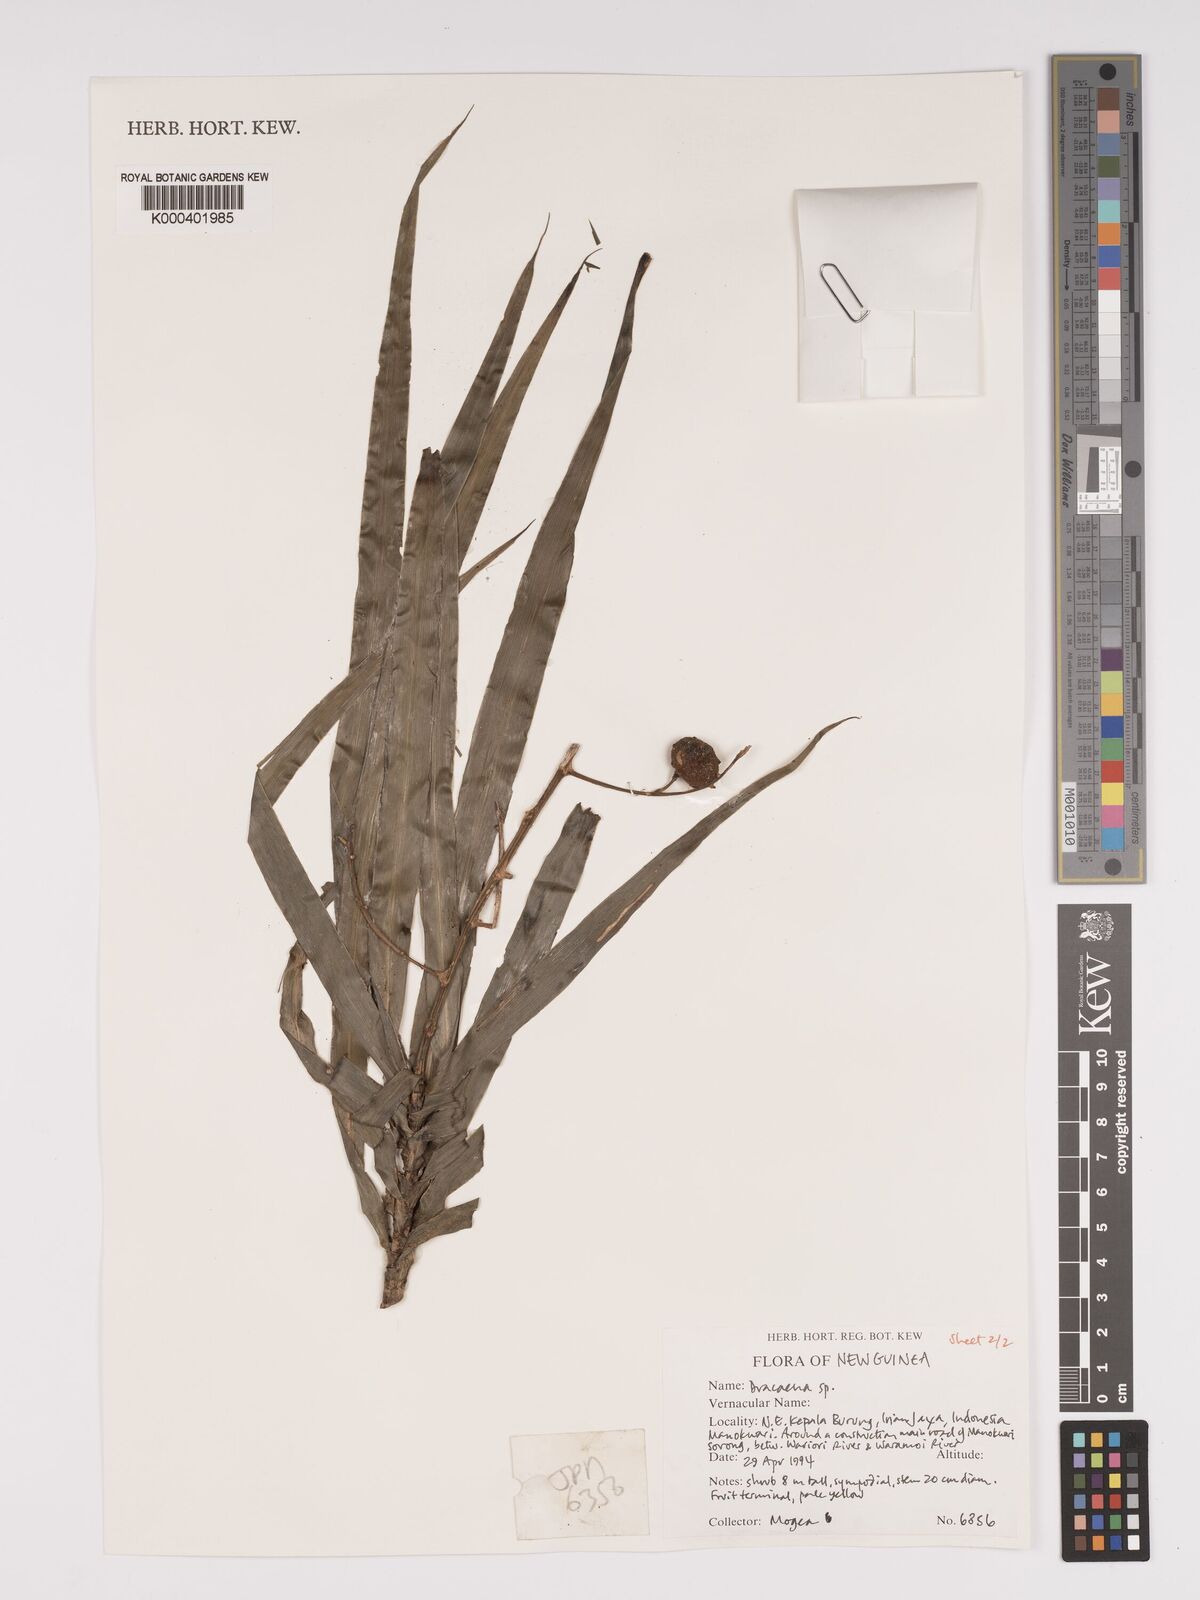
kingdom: Plantae
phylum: Tracheophyta
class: Liliopsida
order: Asparagales
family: Asparagaceae
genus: Dracaena
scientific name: Dracaena
